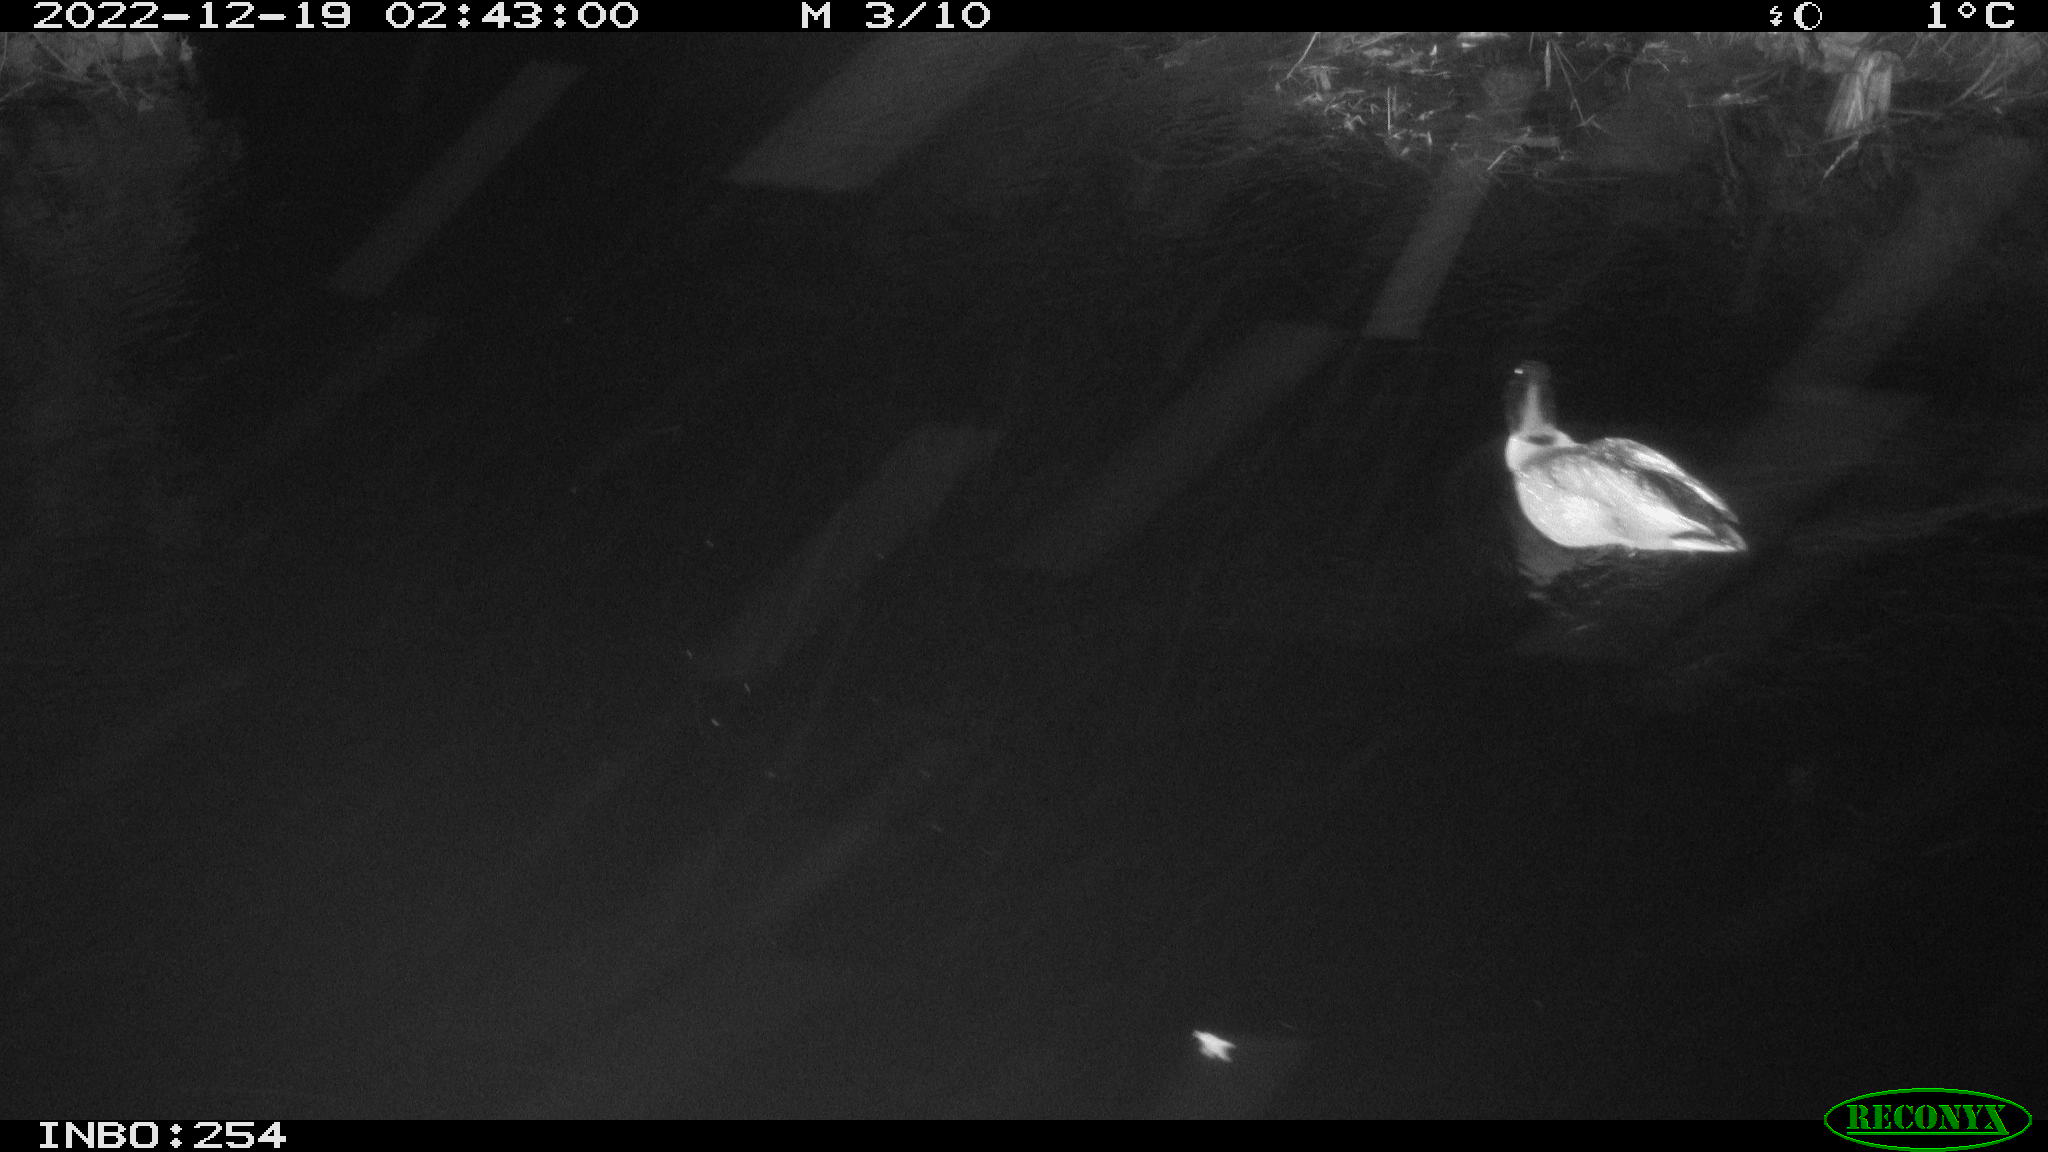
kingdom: Animalia
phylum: Chordata
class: Aves
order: Anseriformes
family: Anatidae
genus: Anas
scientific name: Anas
